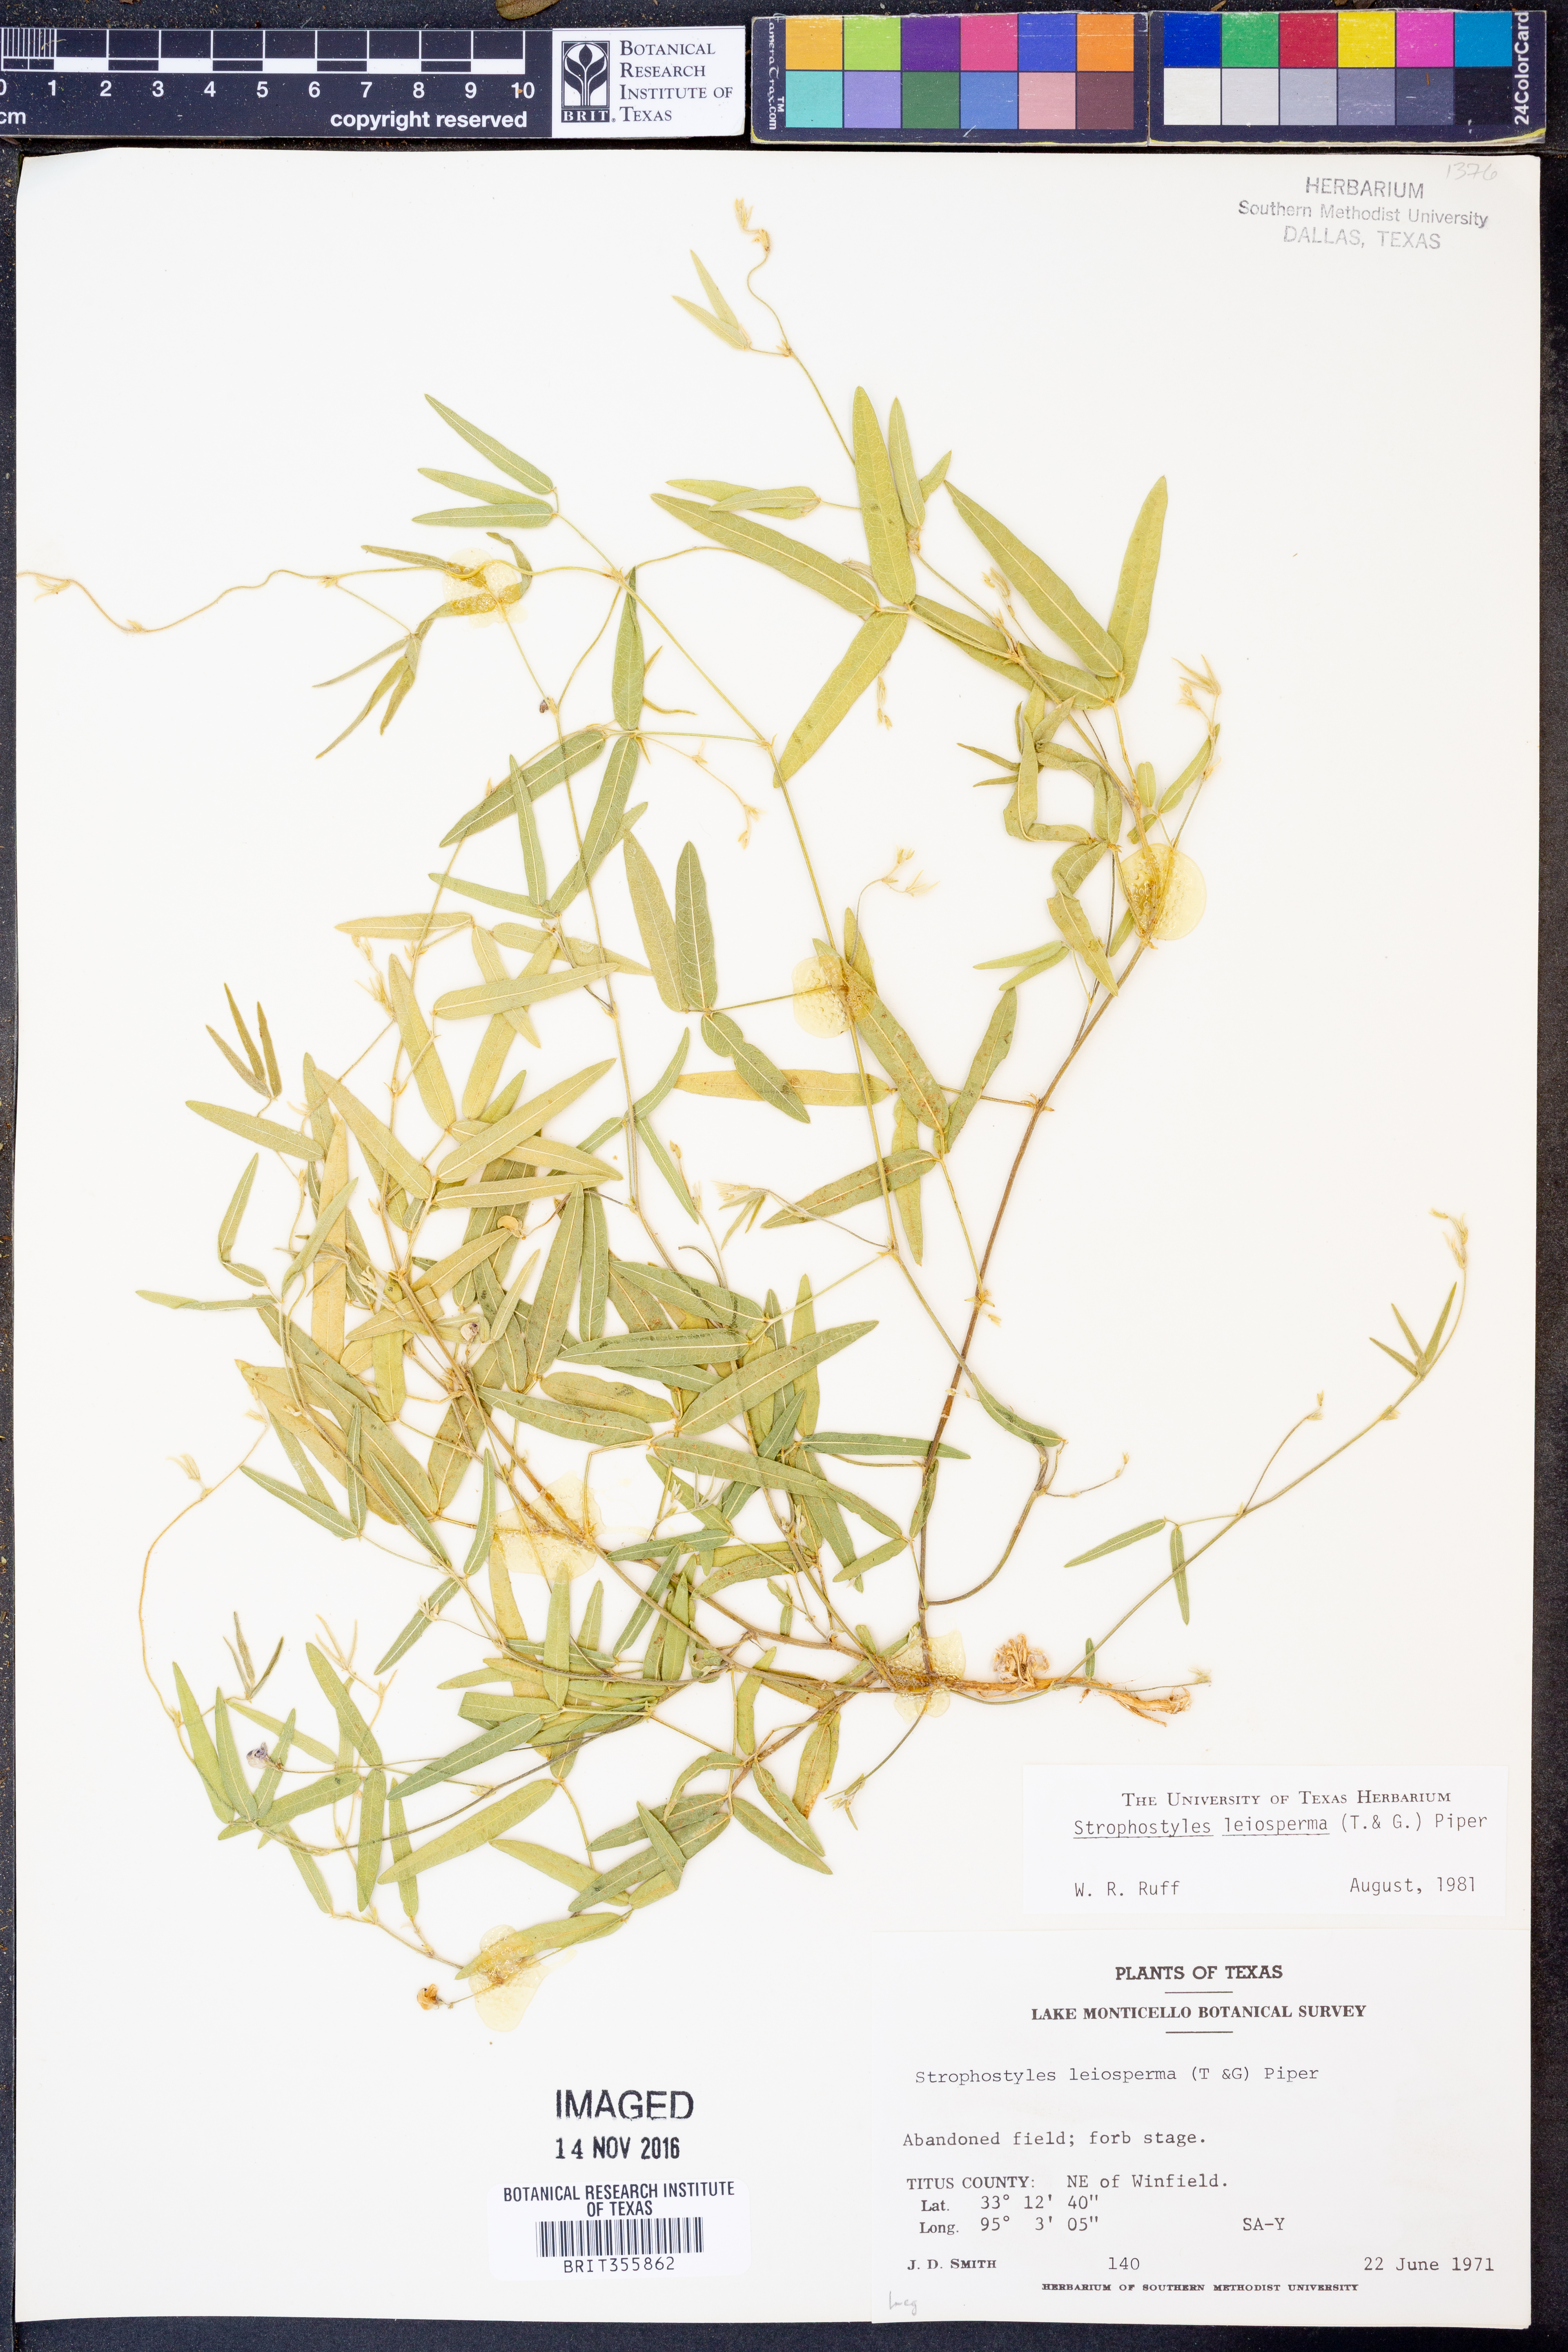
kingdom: Plantae
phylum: Tracheophyta
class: Magnoliopsida
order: Fabales
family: Fabaceae
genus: Strophostyles
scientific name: Strophostyles leiosperma
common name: Smooth-seed wild bean
